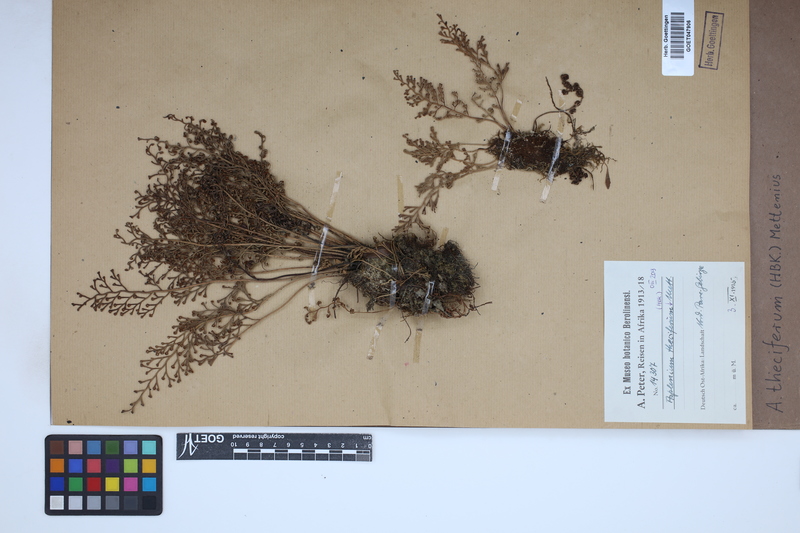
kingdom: Plantae
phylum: Tracheophyta
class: Polypodiopsida
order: Polypodiales
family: Aspleniaceae
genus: Asplenium
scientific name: Asplenium theciferum
